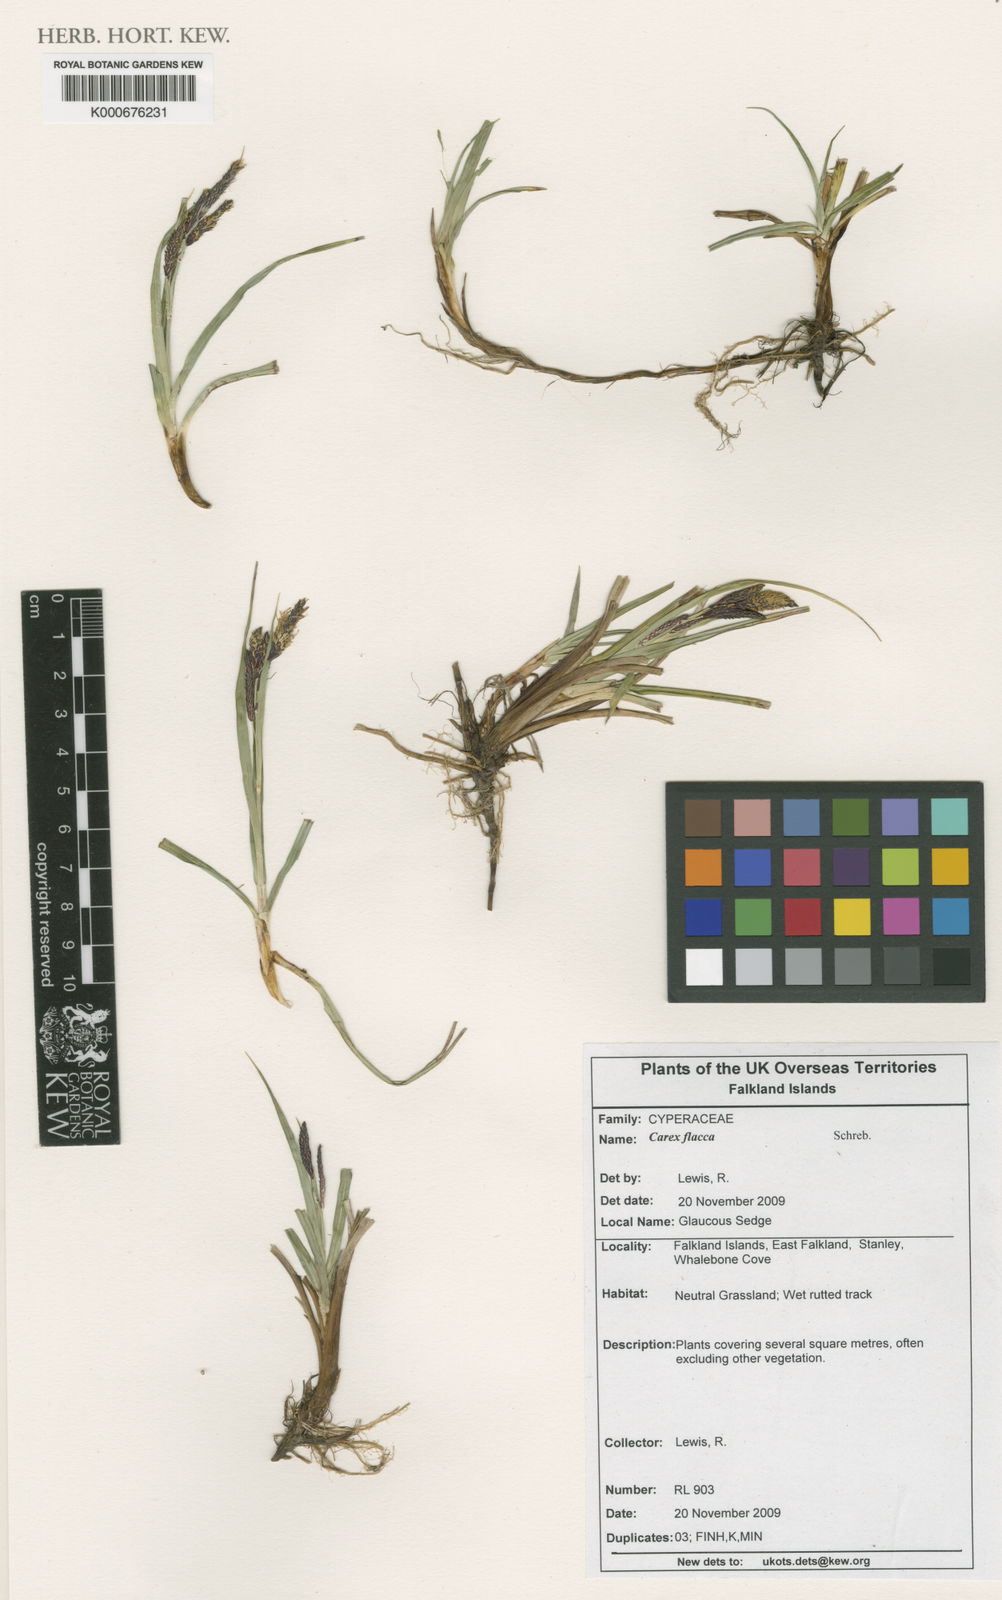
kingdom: Plantae
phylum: Tracheophyta
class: Liliopsida
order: Poales
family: Cyperaceae
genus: Carex
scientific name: Carex flacca
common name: Glaucous sedge
